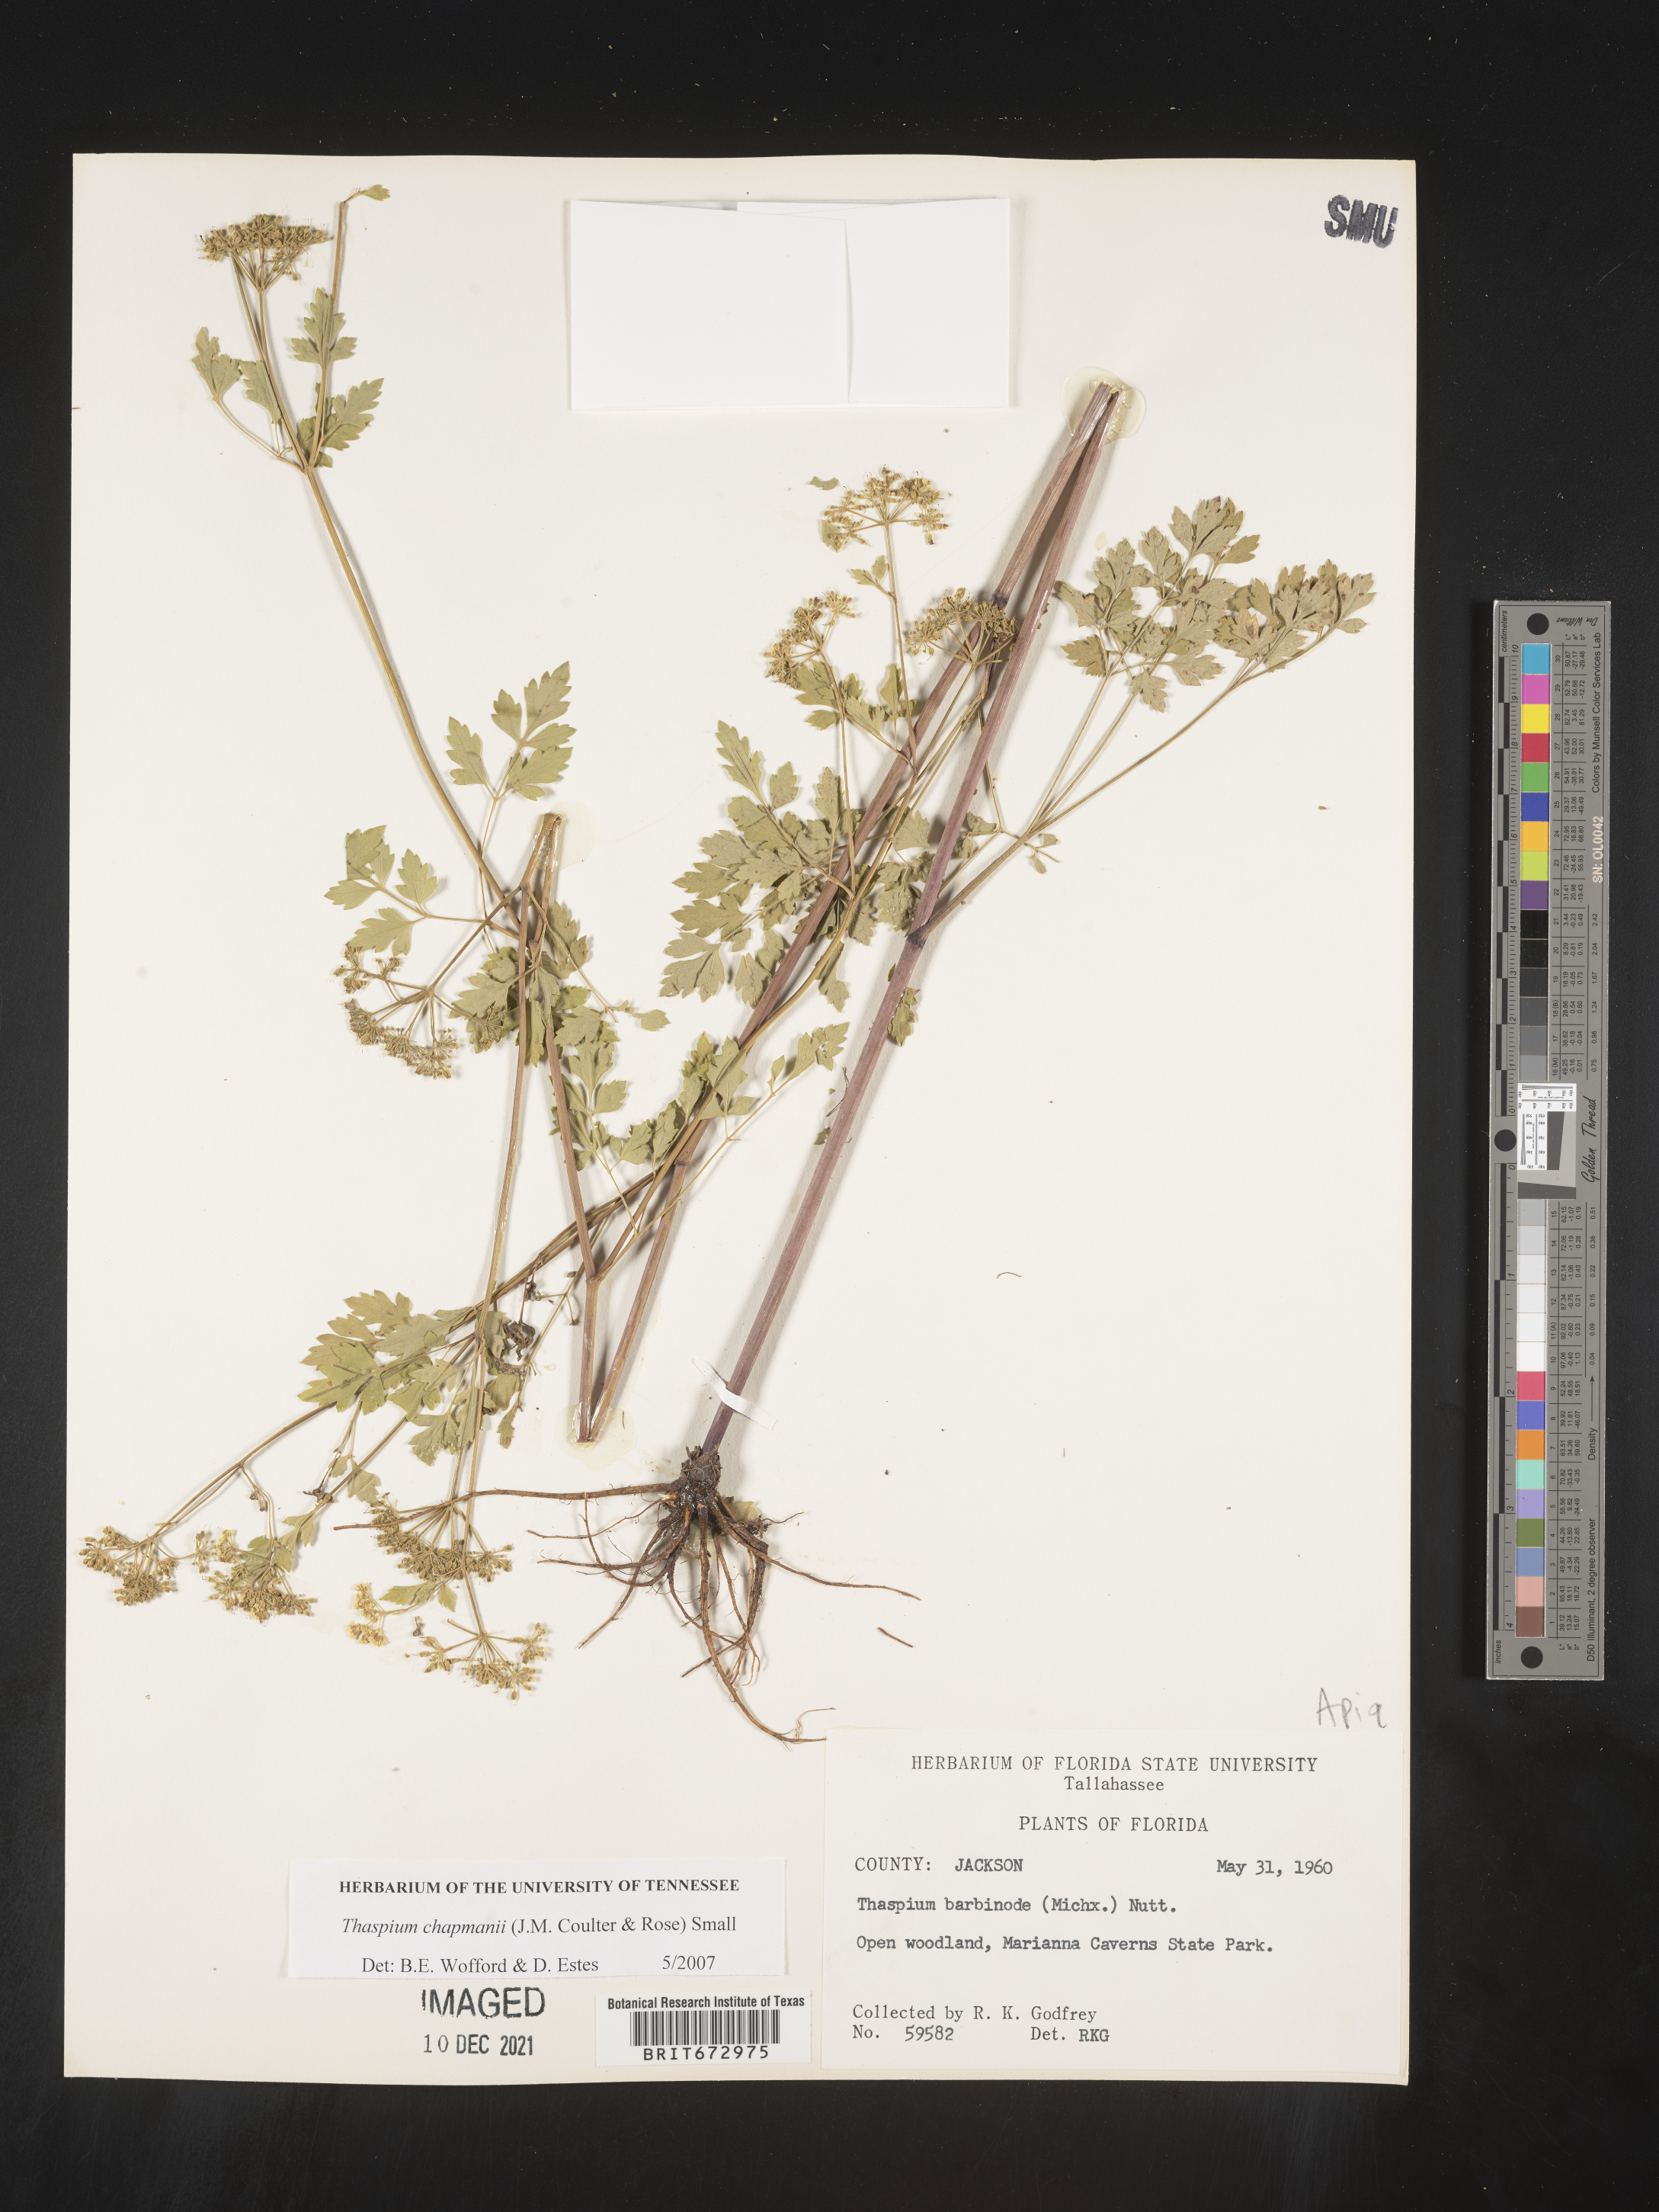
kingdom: Plantae
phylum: Tracheophyta
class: Magnoliopsida
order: Apiales
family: Apiaceae
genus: Thaspium
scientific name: Thaspium barbinode
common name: Bearded meadow-parsnip
